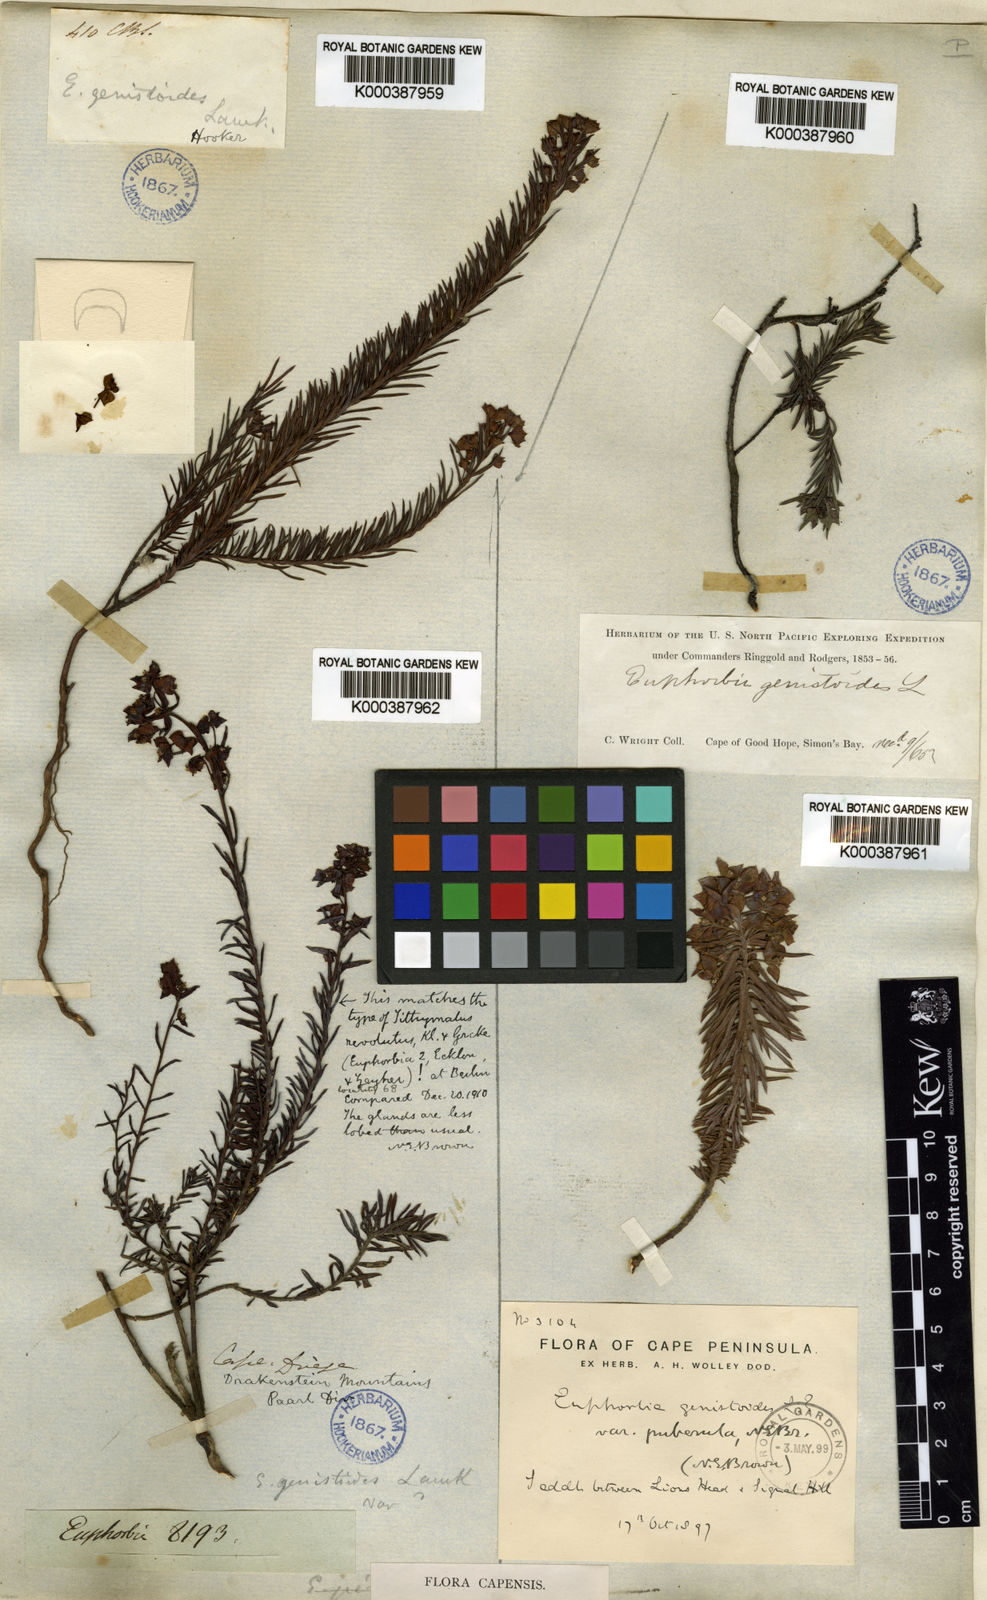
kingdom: Plantae
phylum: Tracheophyta
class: Magnoliopsida
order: Malpighiales
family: Euphorbiaceae
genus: Euphorbia
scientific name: Euphorbia genistoides
